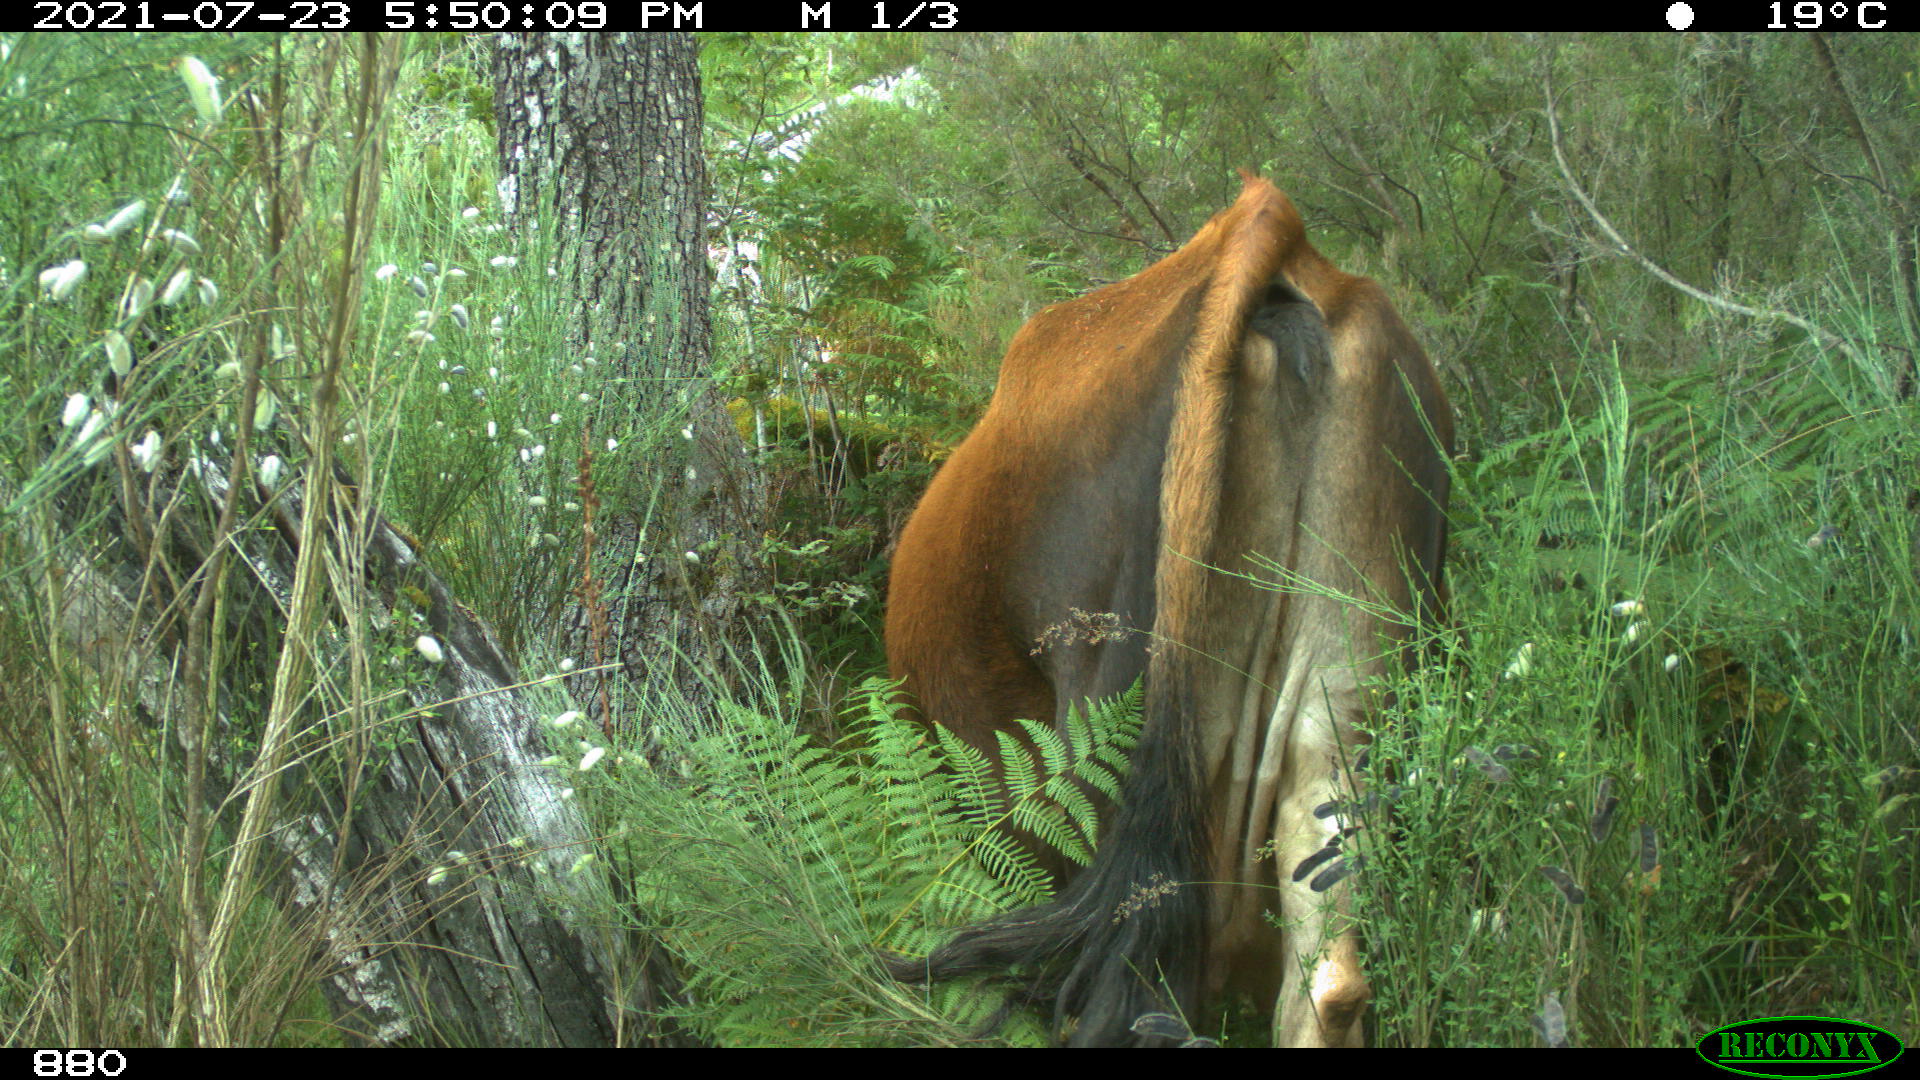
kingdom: Animalia
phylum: Chordata
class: Mammalia
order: Artiodactyla
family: Bovidae
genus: Bos
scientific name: Bos taurus
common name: Domesticated cattle
